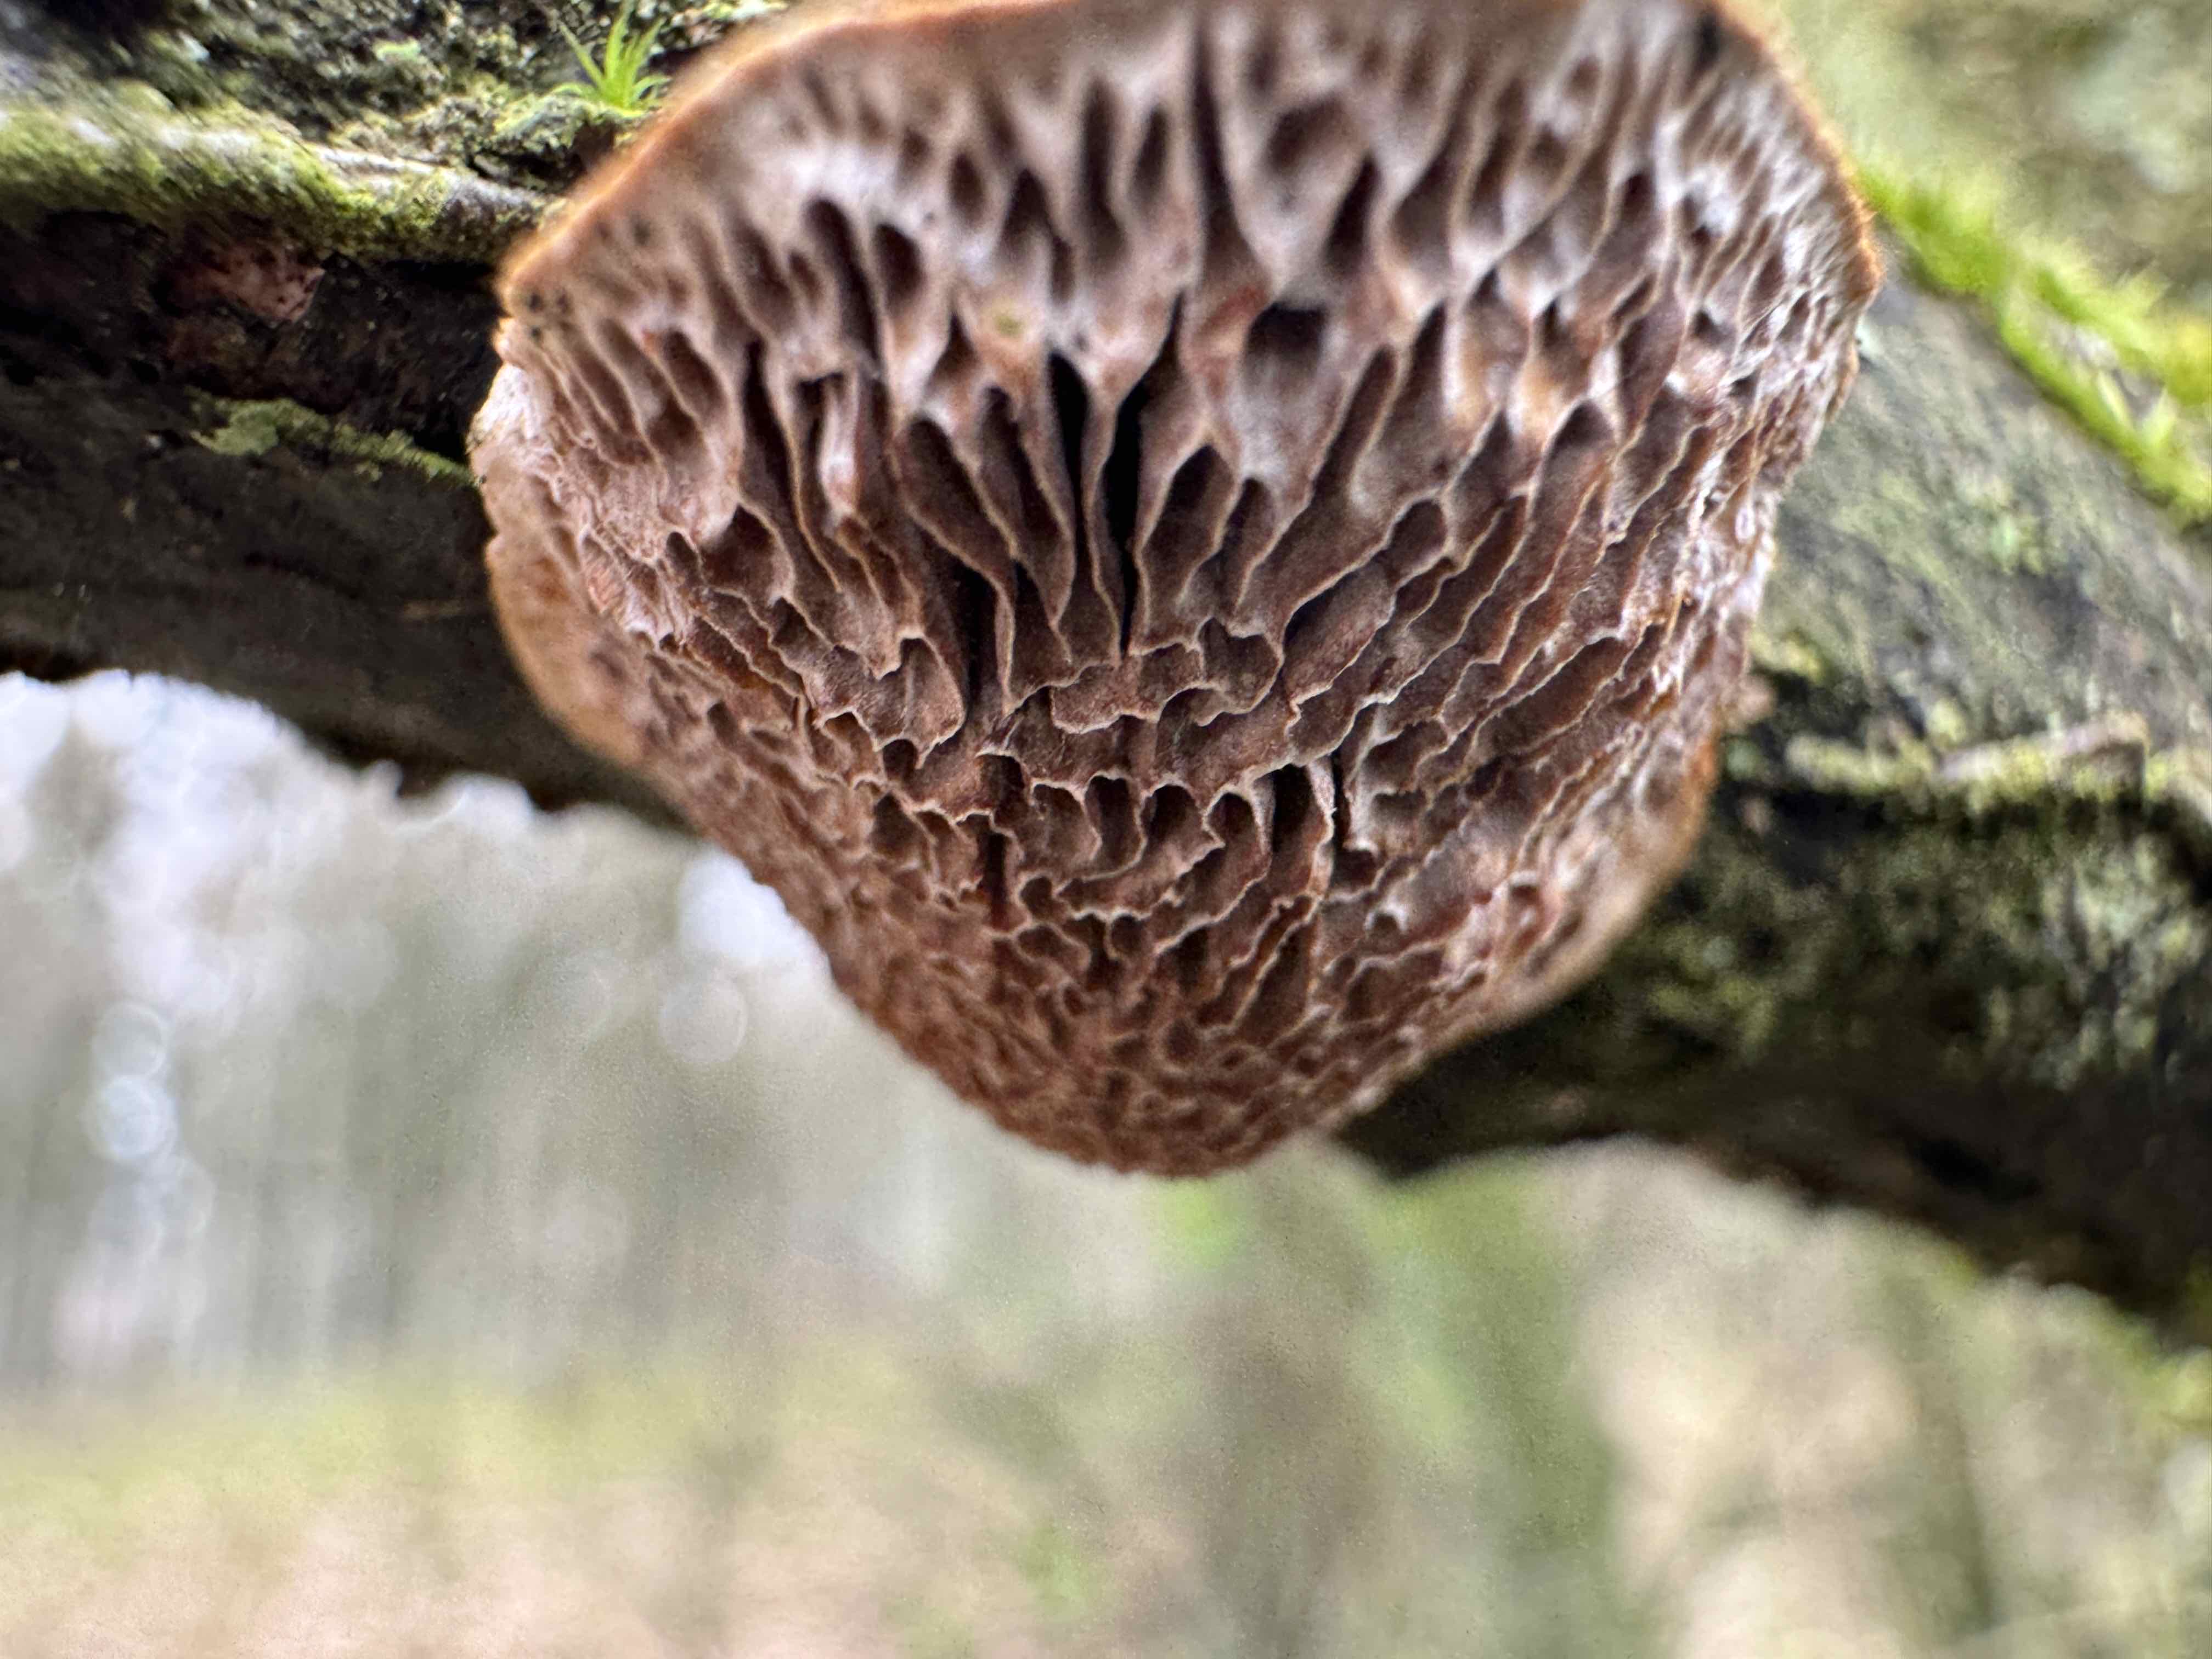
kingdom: Fungi
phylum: Basidiomycota
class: Agaricomycetes
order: Polyporales
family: Polyporaceae
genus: Daedaleopsis
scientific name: Daedaleopsis confragosa
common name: rødmende læderporesvamp
